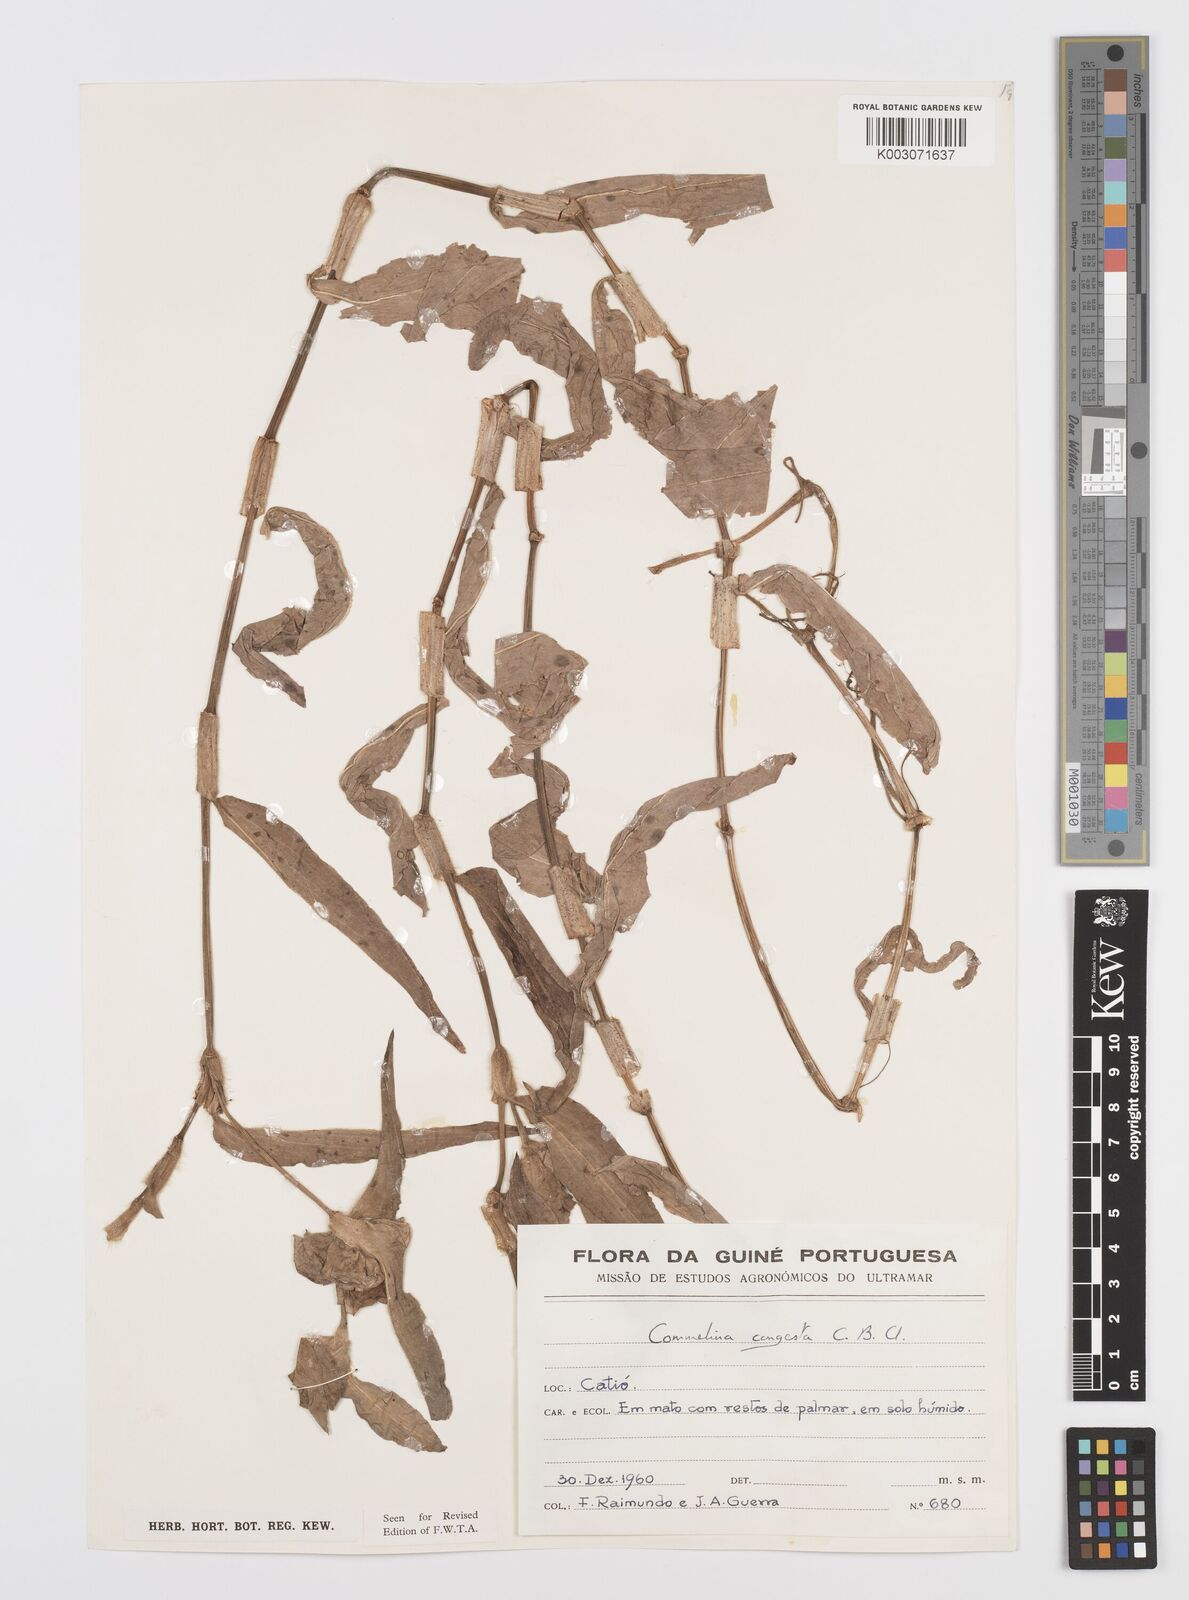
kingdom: Plantae
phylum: Tracheophyta
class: Liliopsida
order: Commelinales
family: Commelinaceae
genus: Commelina
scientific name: Commelina congesta
